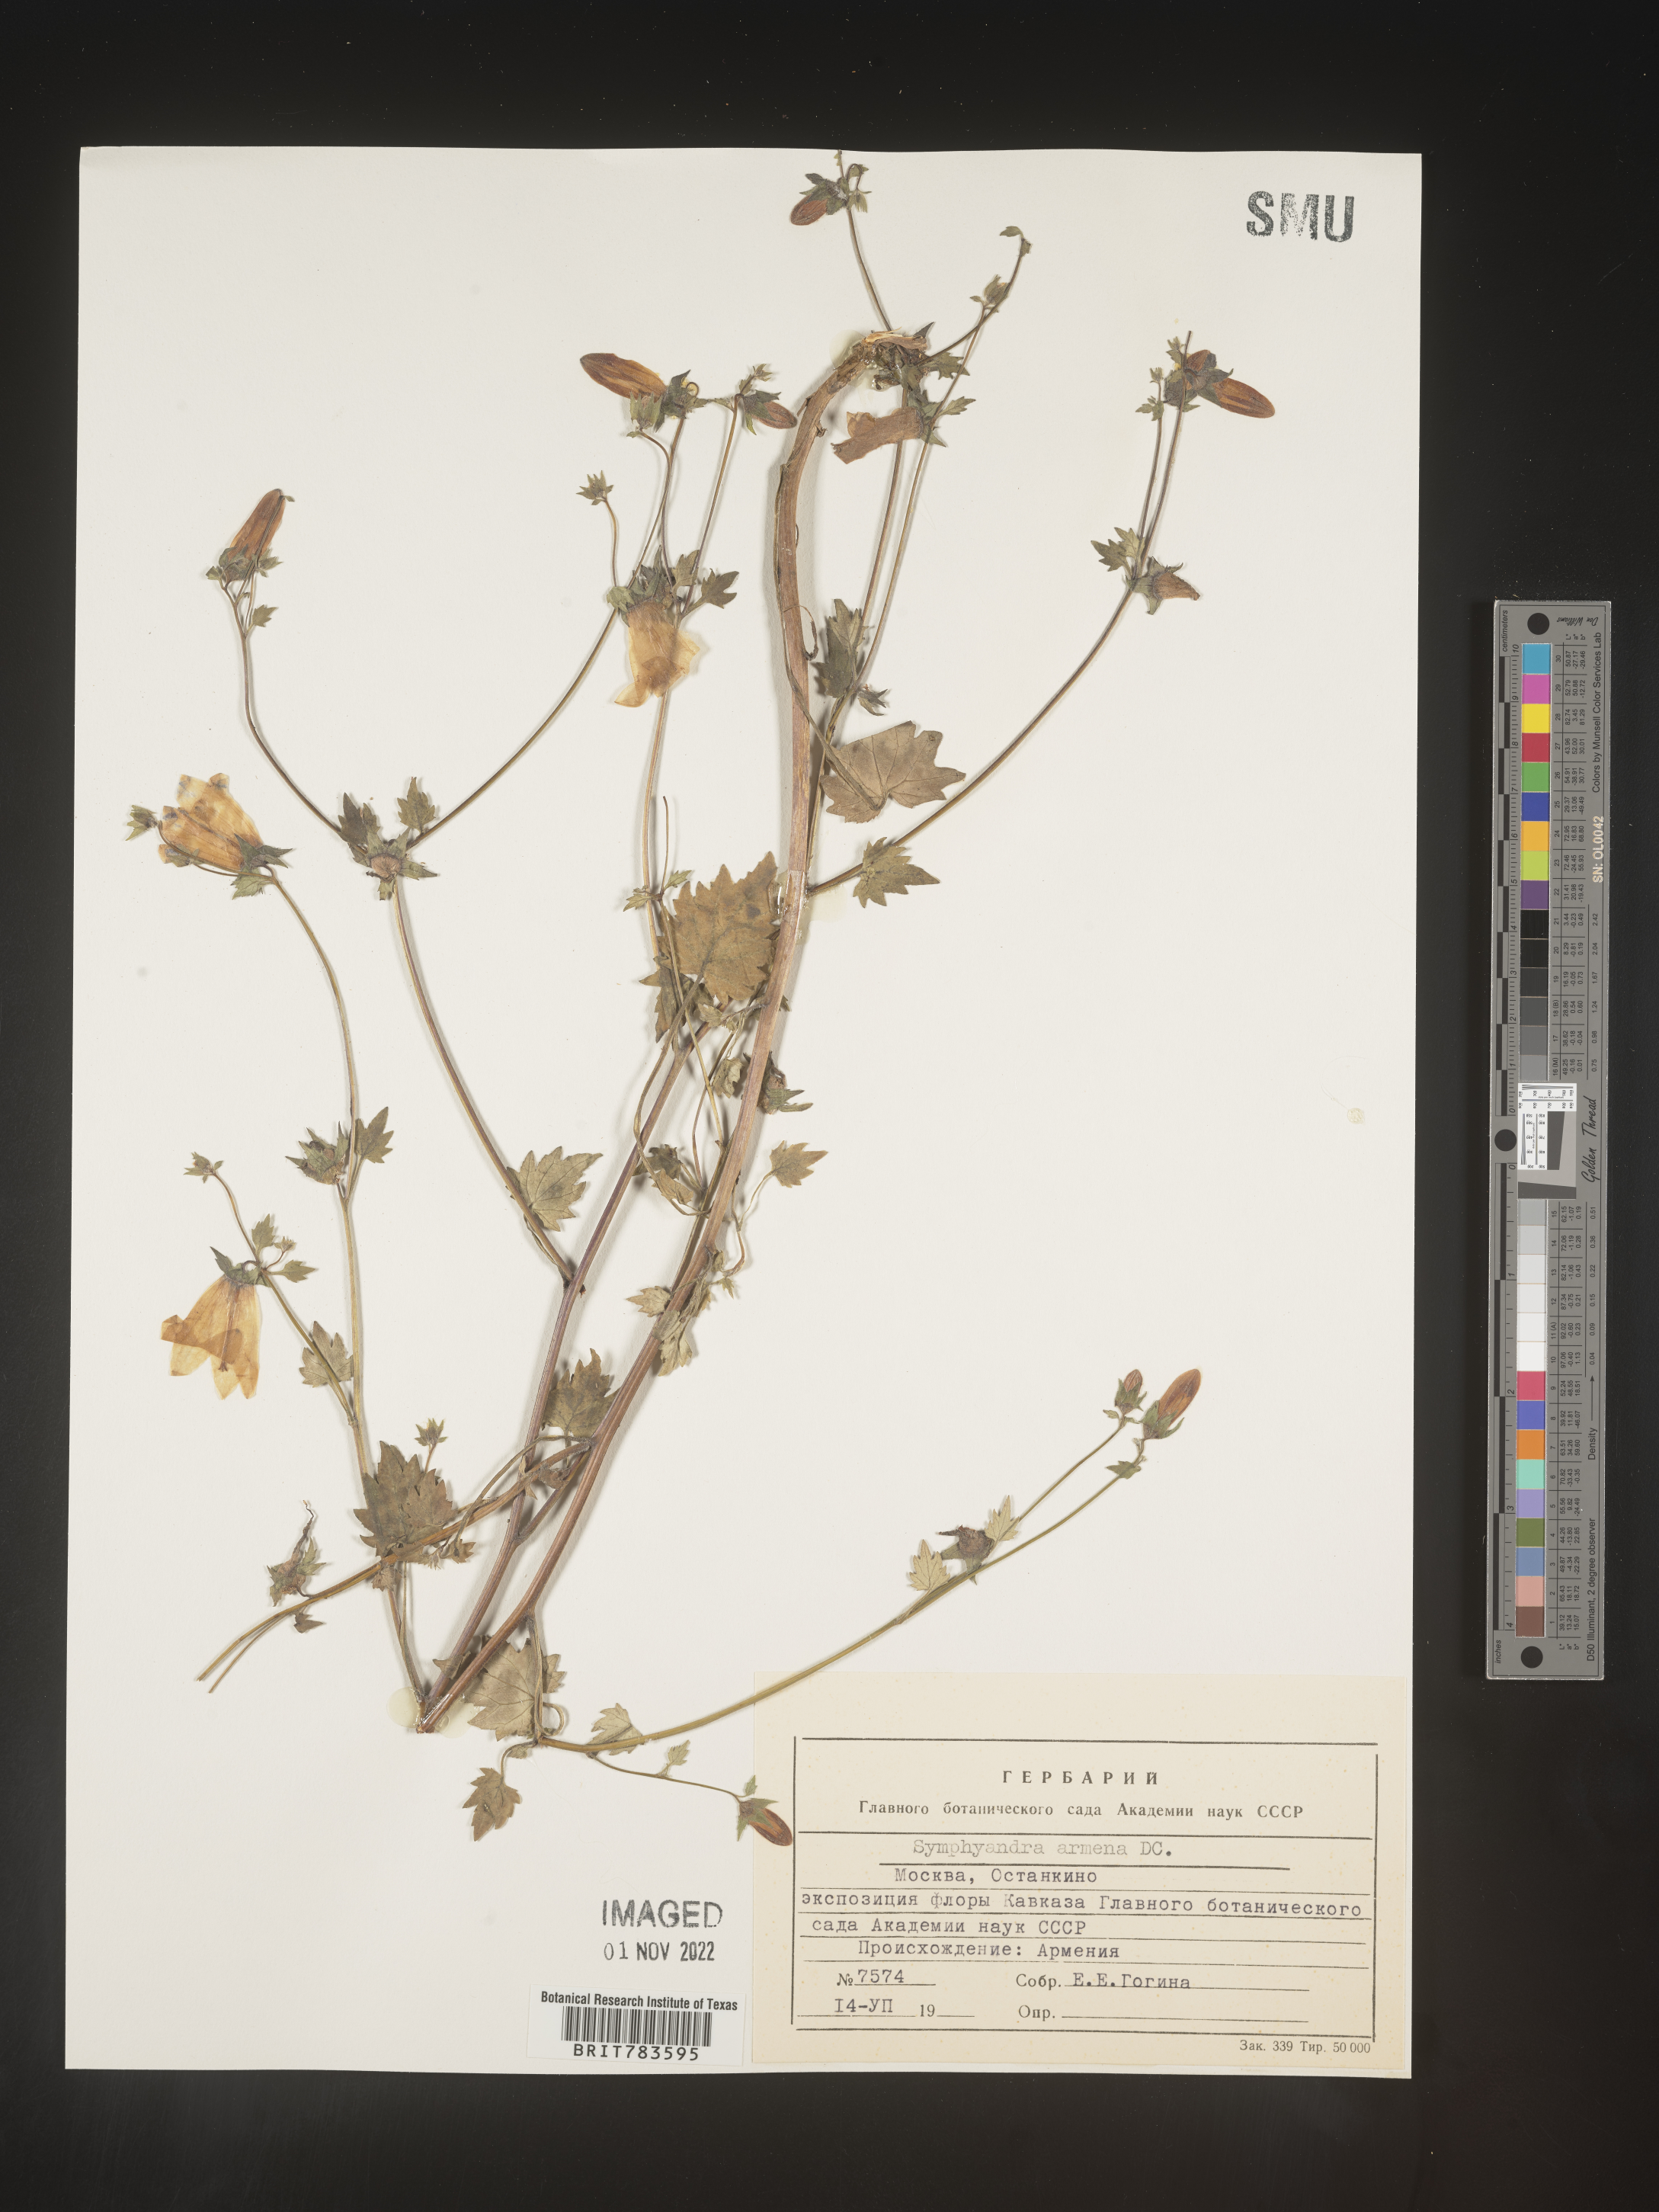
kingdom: Plantae
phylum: Tracheophyta
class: Magnoliopsida
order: Asterales
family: Campanulaceae
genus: Campanula
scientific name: Campanula
